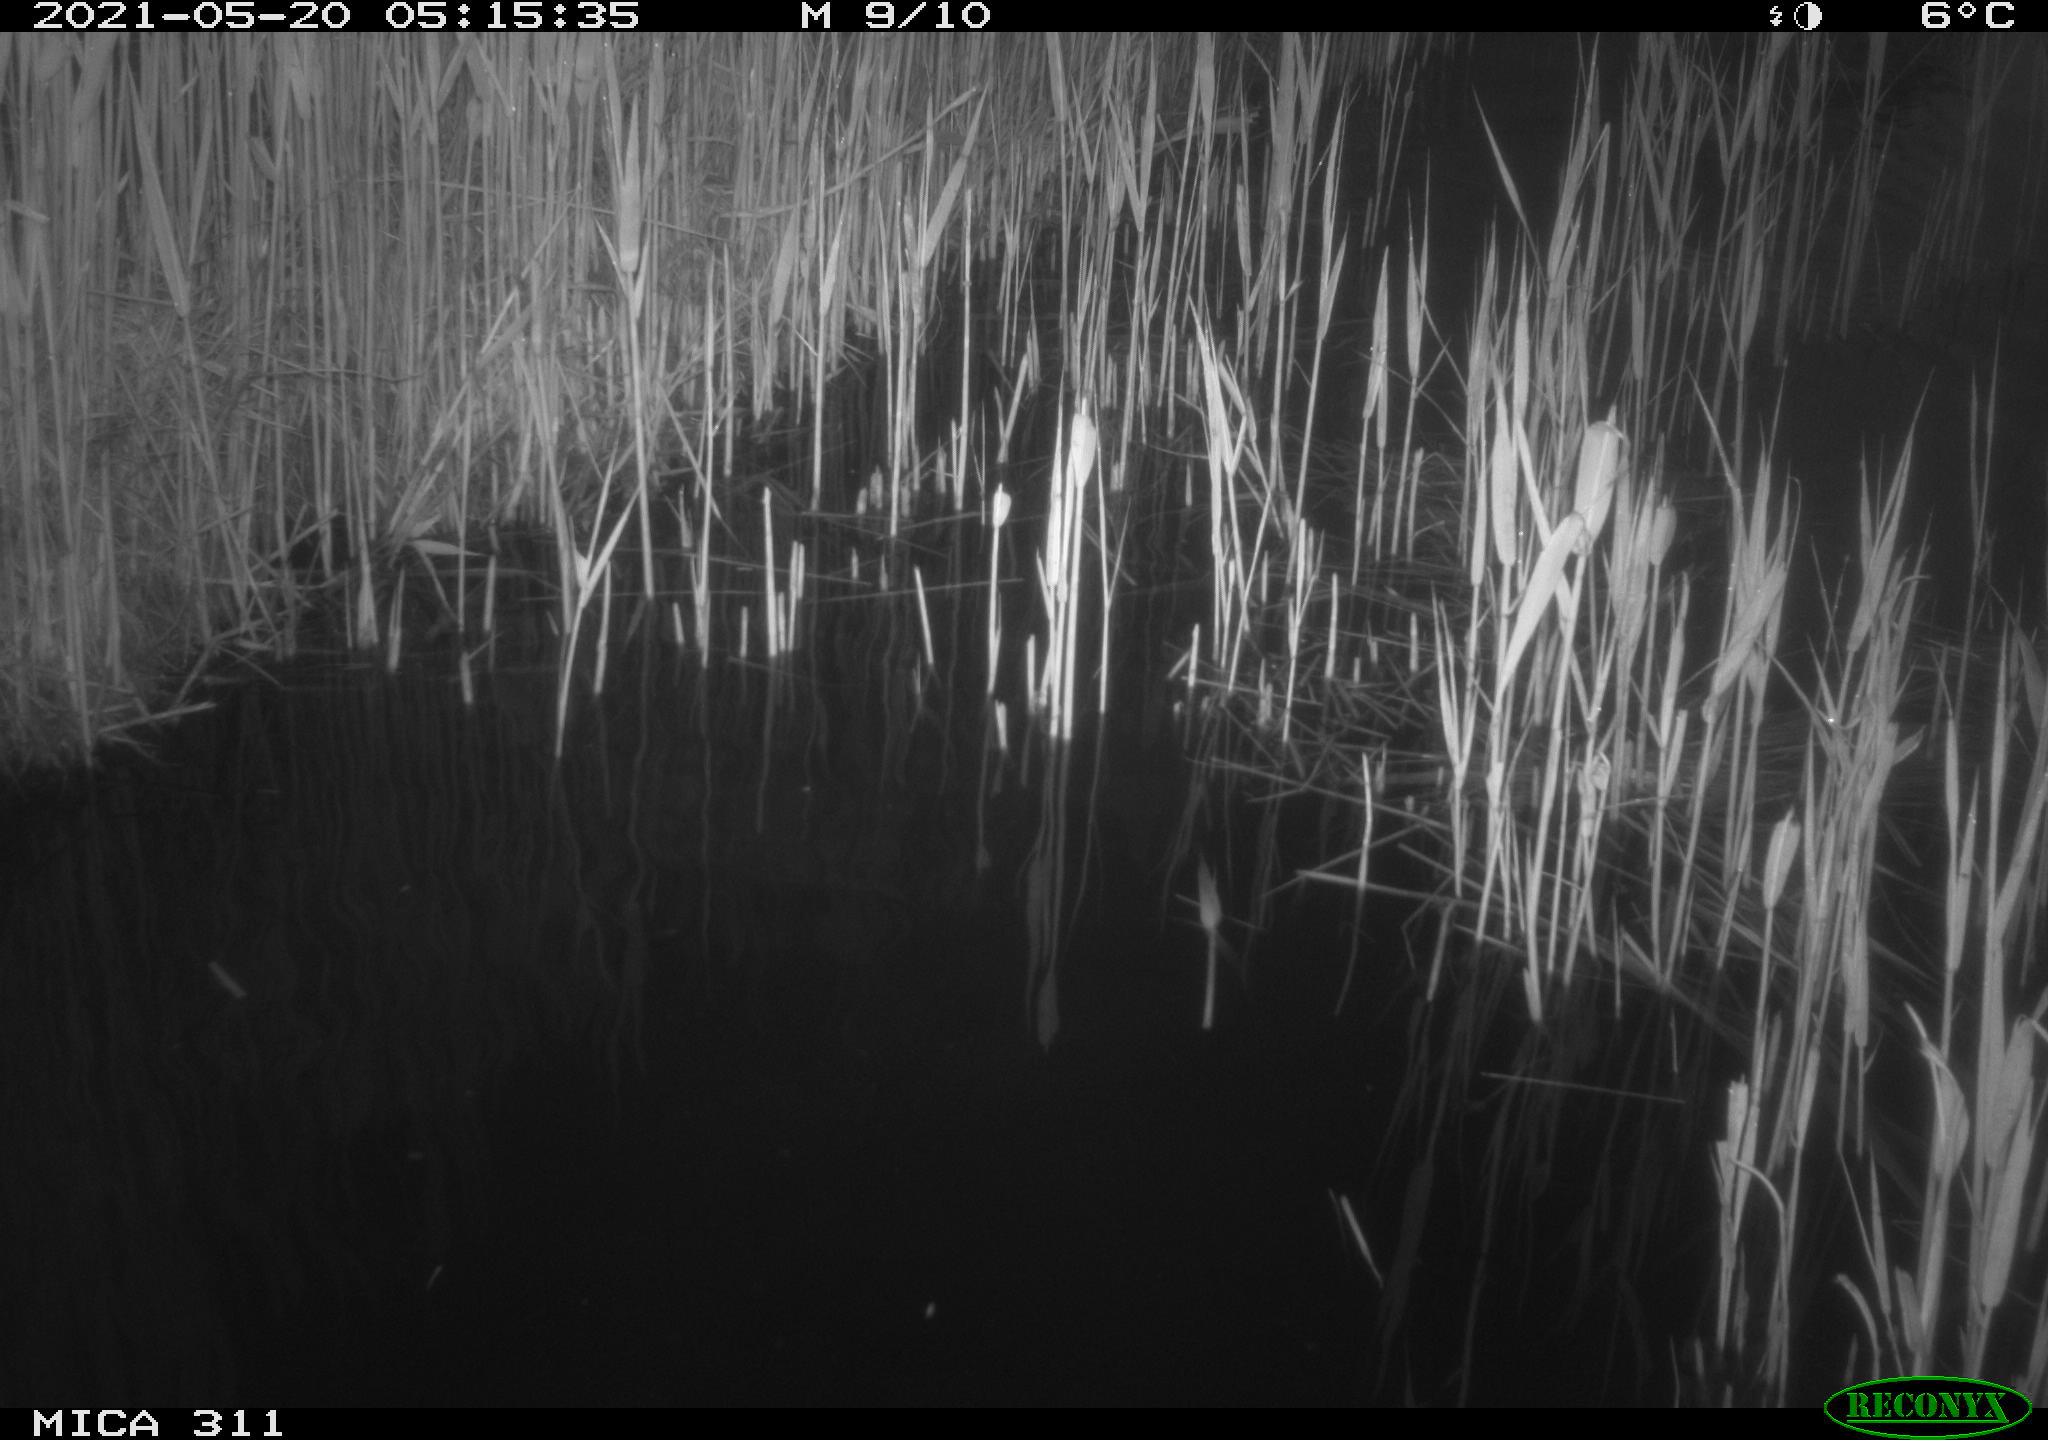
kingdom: Animalia
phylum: Chordata
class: Aves
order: Anseriformes
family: Anatidae
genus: Anas
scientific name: Anas platyrhynchos
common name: Mallard
